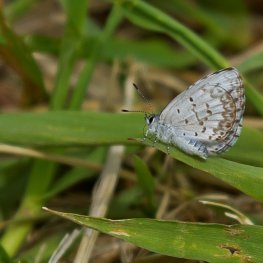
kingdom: Animalia
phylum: Arthropoda
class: Insecta
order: Lepidoptera
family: Lycaenidae
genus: Celastrina
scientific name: Celastrina lucia
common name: Northern Spring Azure
